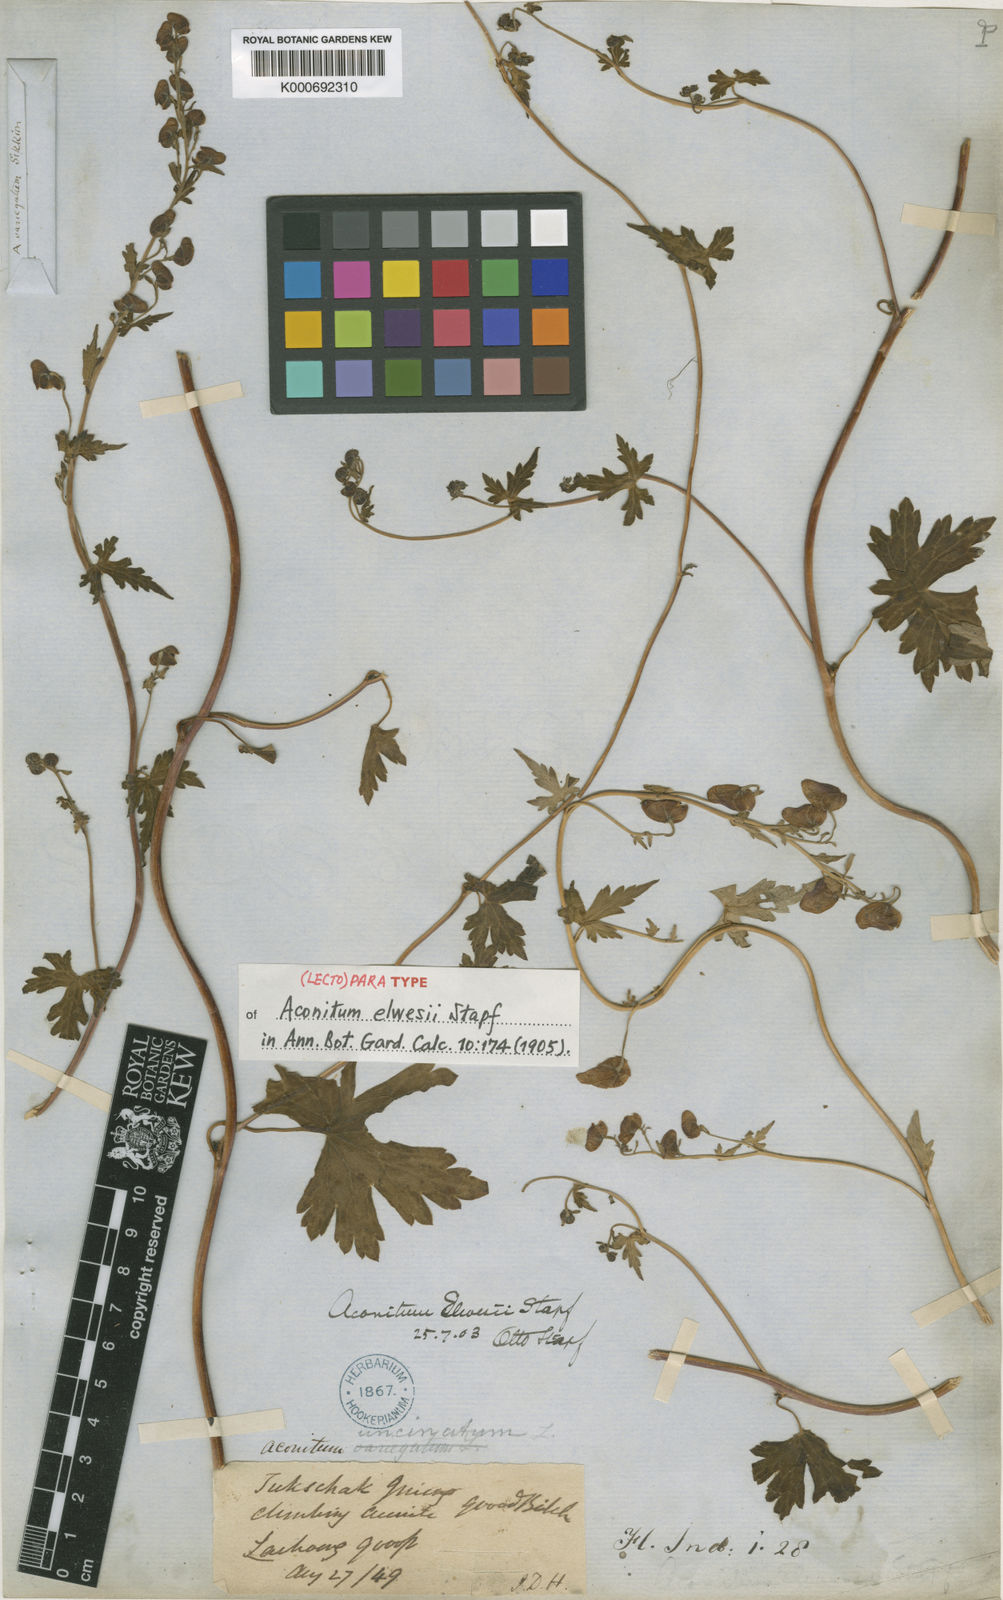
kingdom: Plantae
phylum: Tracheophyta
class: Magnoliopsida
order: Ranunculales
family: Ranunculaceae
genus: Aconitum
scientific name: Aconitum elwesii
